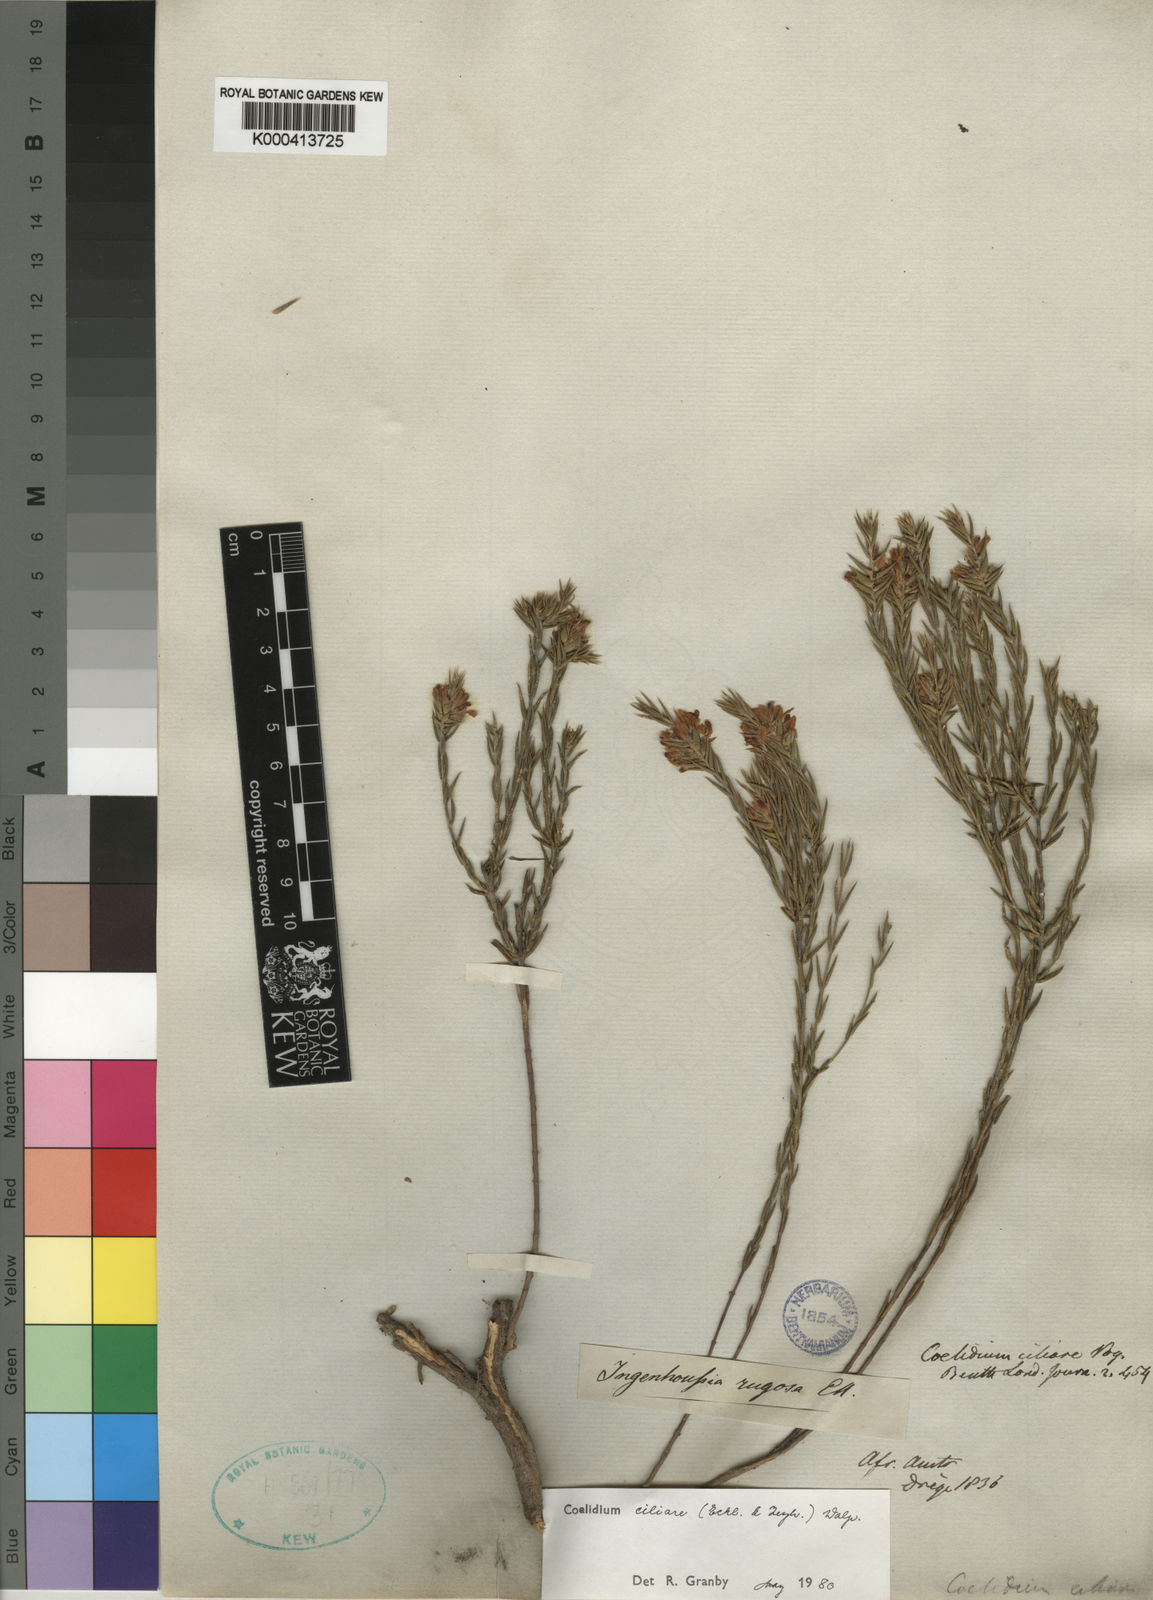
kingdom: Plantae
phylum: Tracheophyta
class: Magnoliopsida
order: Fabales
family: Fabaceae
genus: Amphithalea
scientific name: Amphithalea ciliaris
